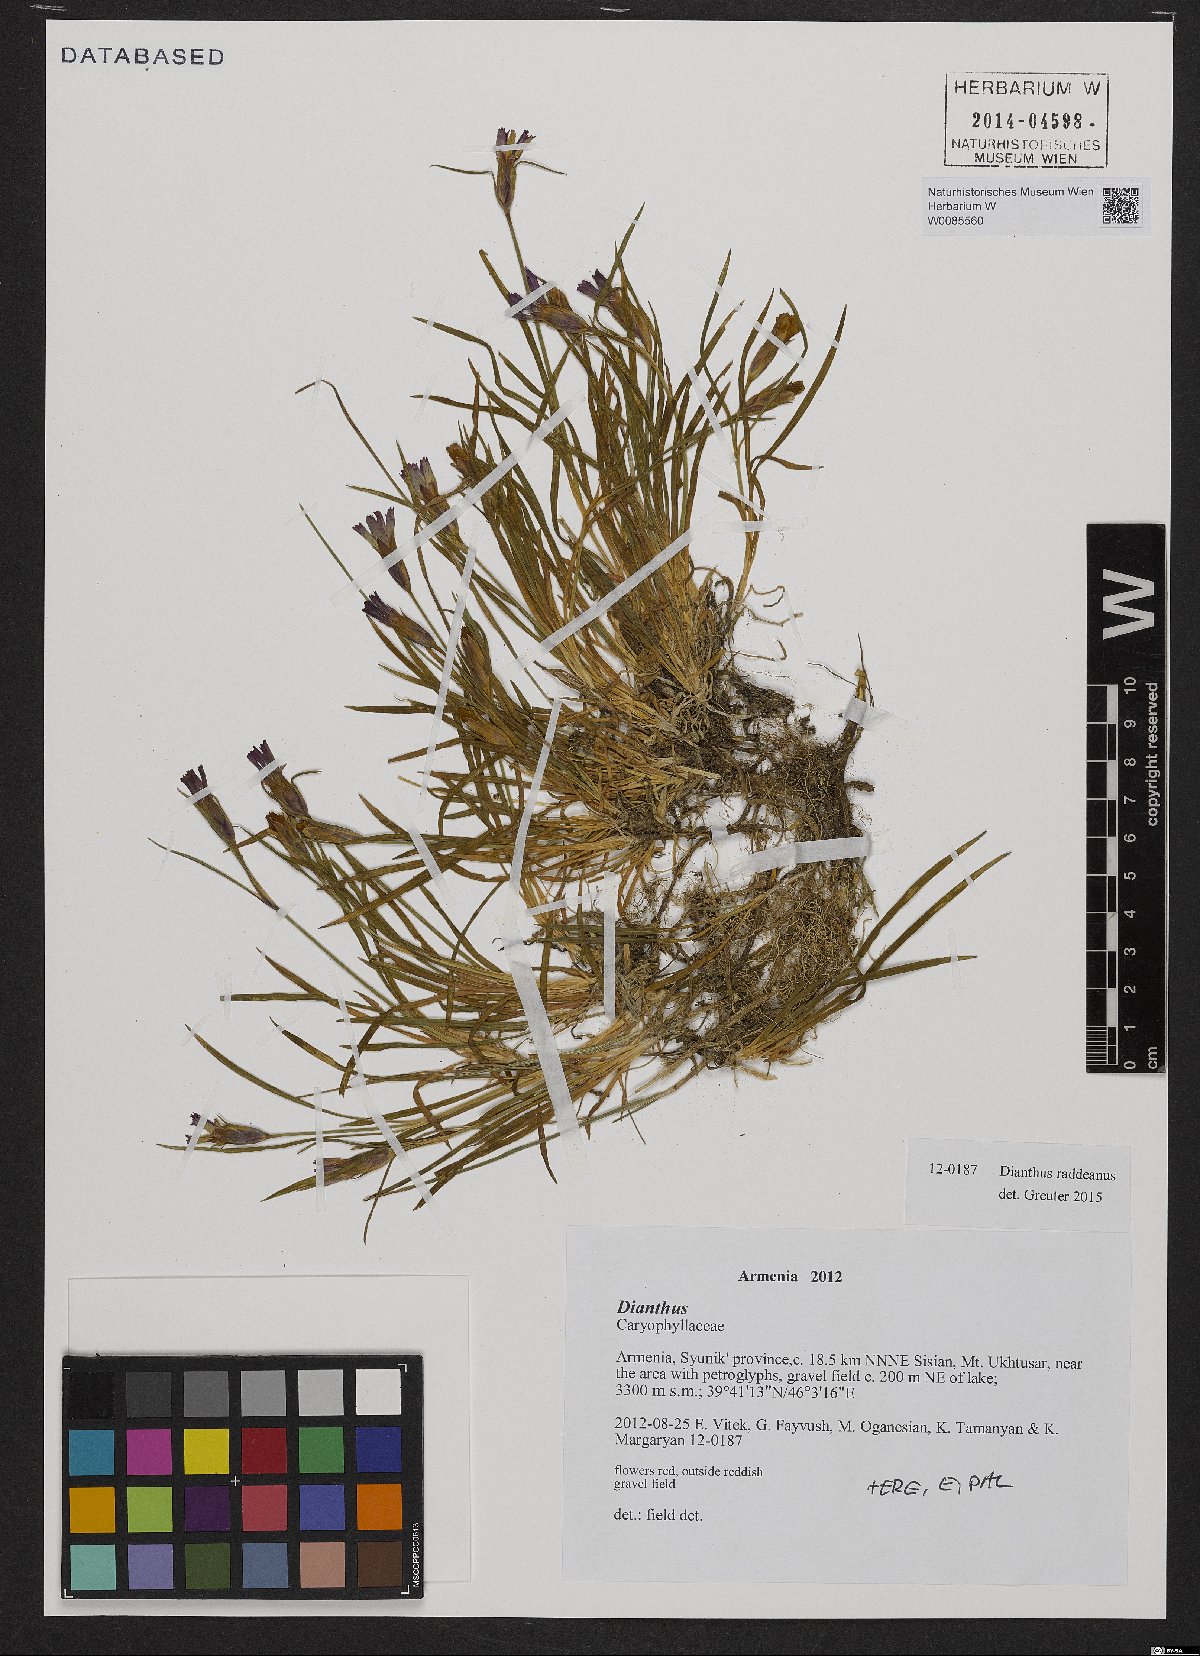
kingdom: Plantae
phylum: Tracheophyta
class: Magnoliopsida
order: Caryophyllales
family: Caryophyllaceae
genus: Dianthus
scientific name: Dianthus raddeanus
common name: Radde's pink
